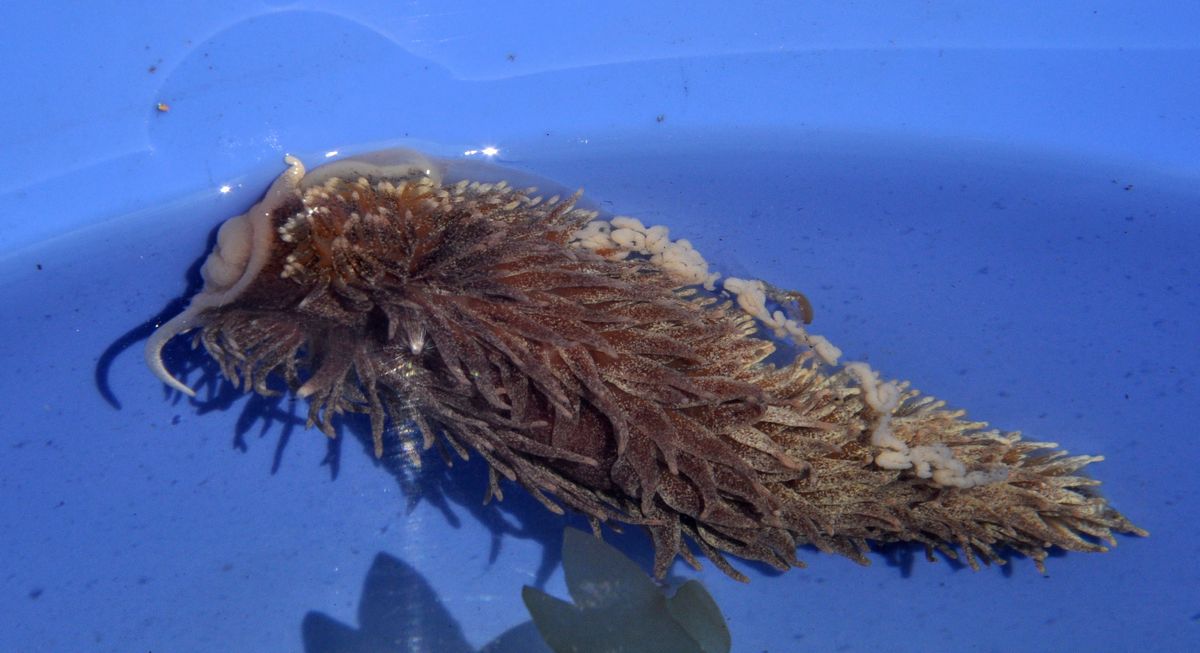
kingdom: Animalia
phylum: Mollusca
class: Gastropoda
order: Nudibranchia
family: Aeolidiidae
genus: Aeolidia
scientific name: Aeolidia papillosa
